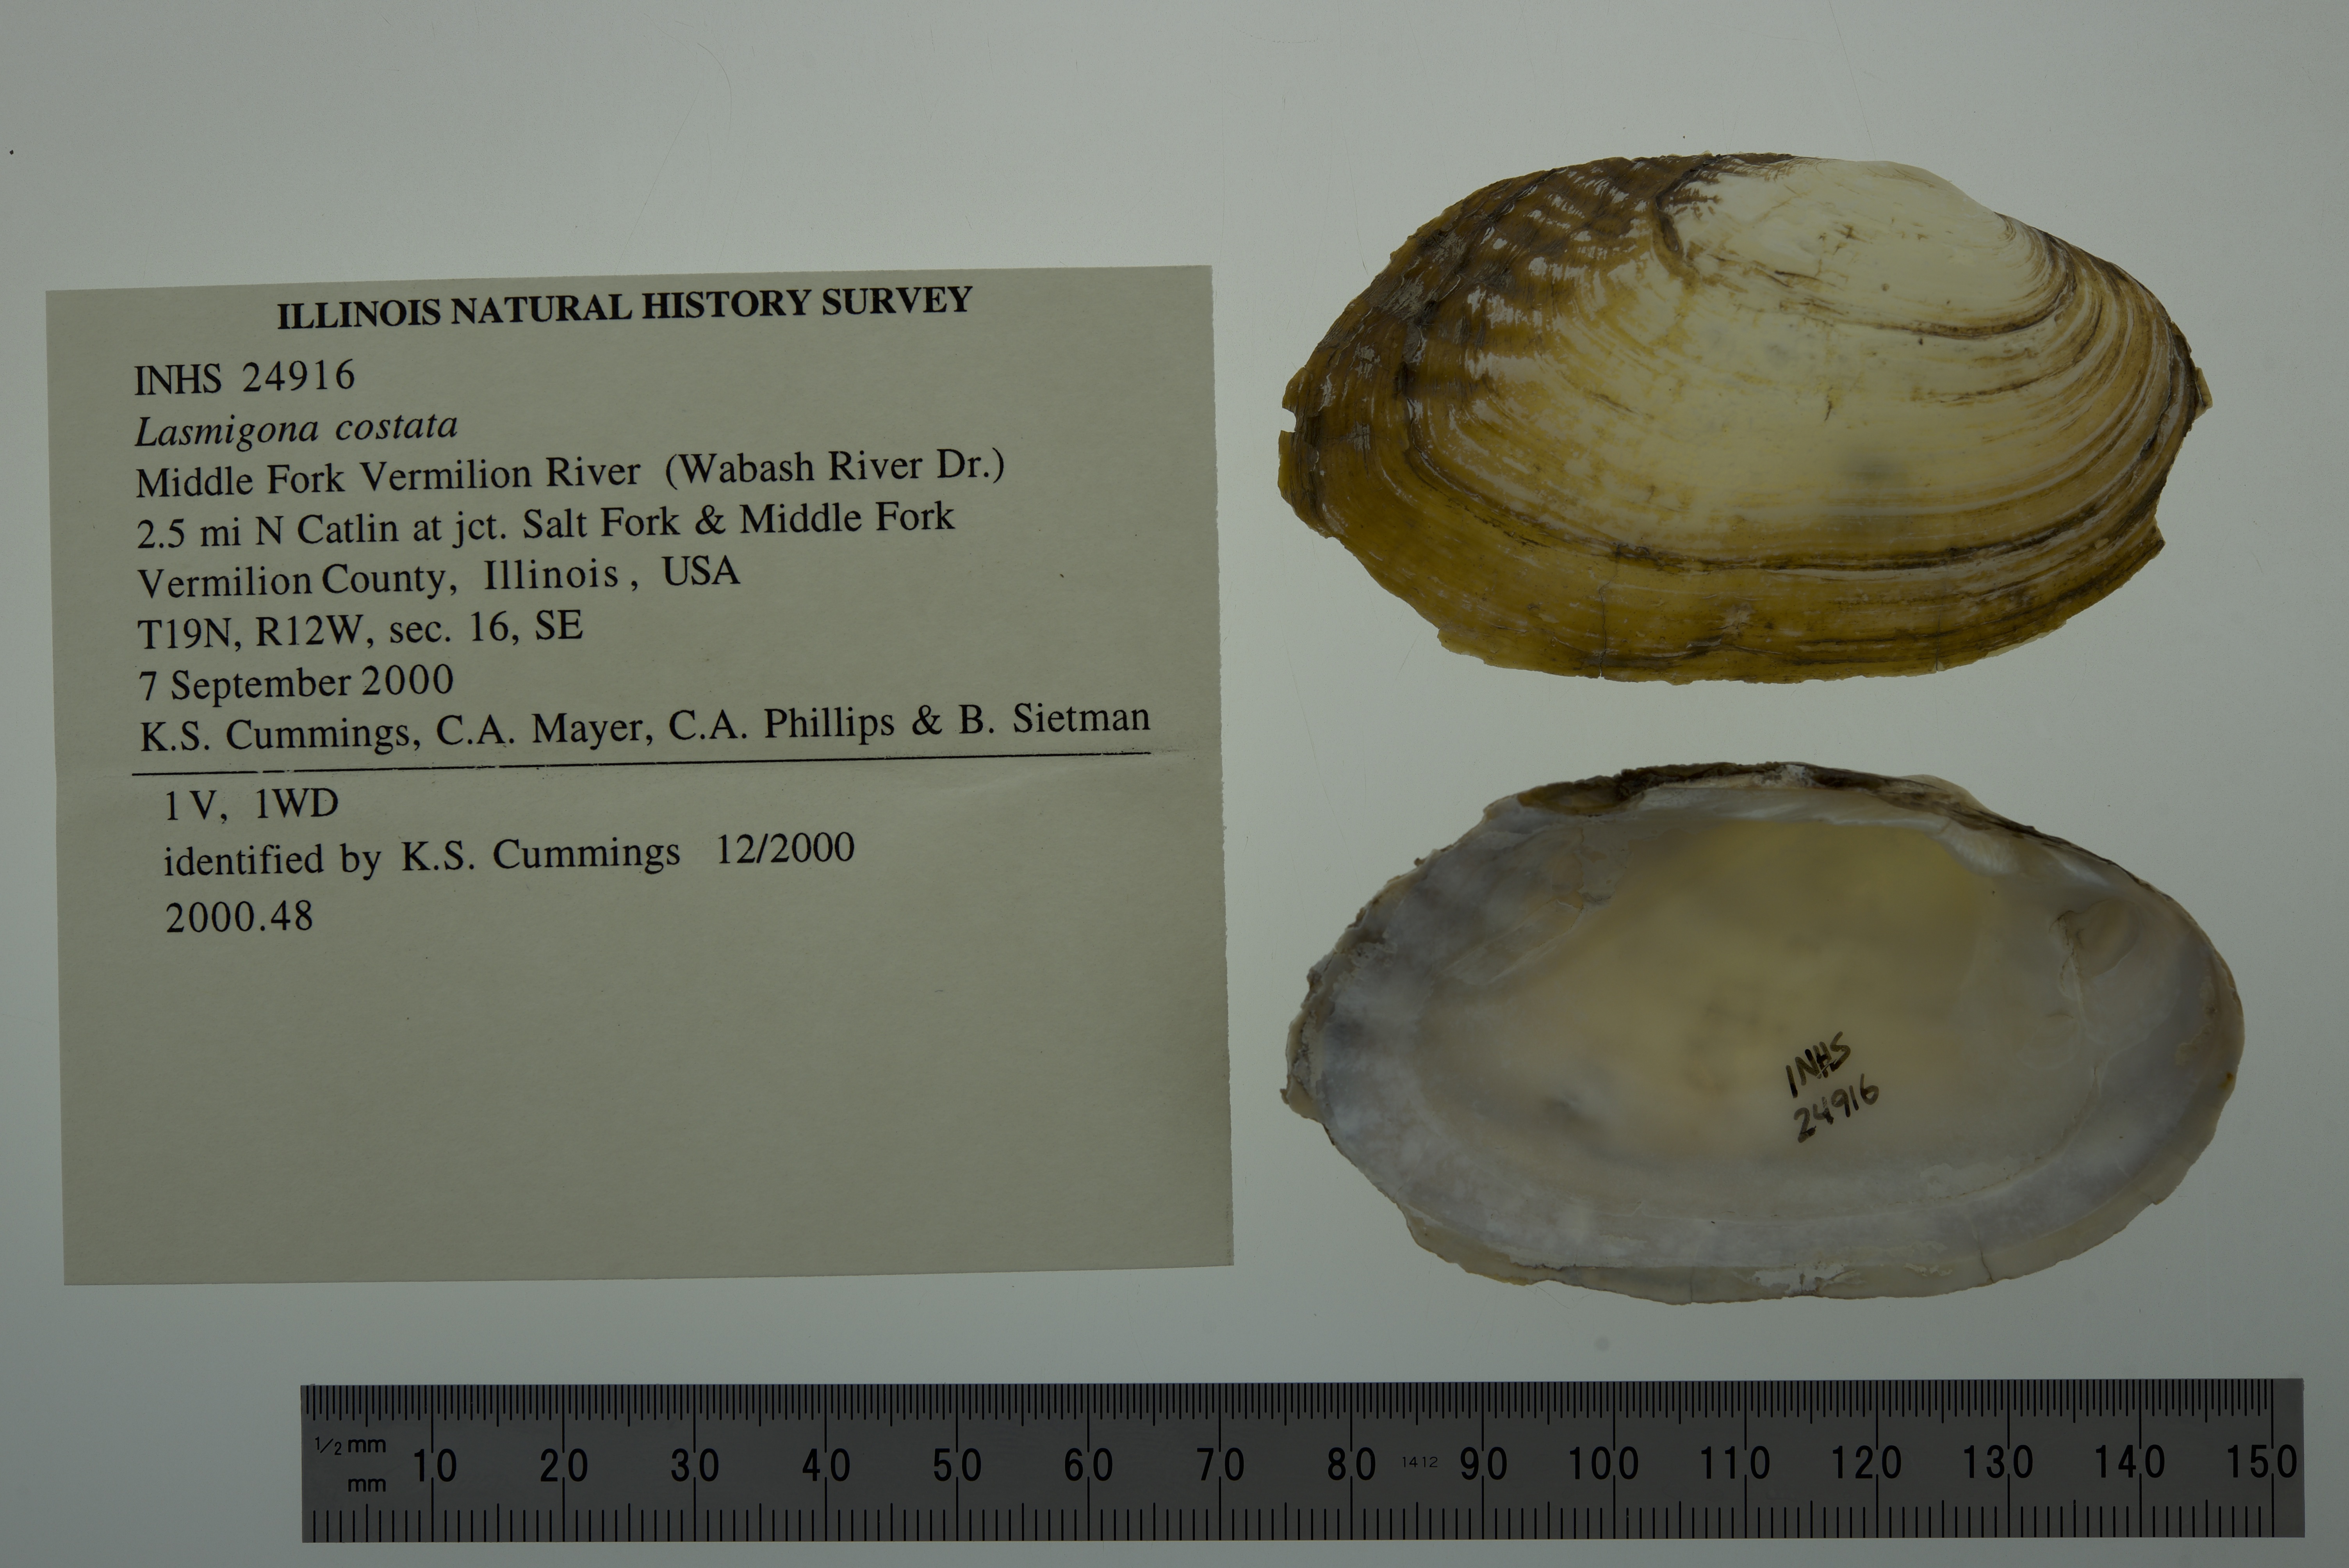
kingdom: Animalia
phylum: Mollusca
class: Bivalvia
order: Unionida
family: Unionidae
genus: Lasmigona
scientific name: Lasmigona costata
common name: Flutedshell
